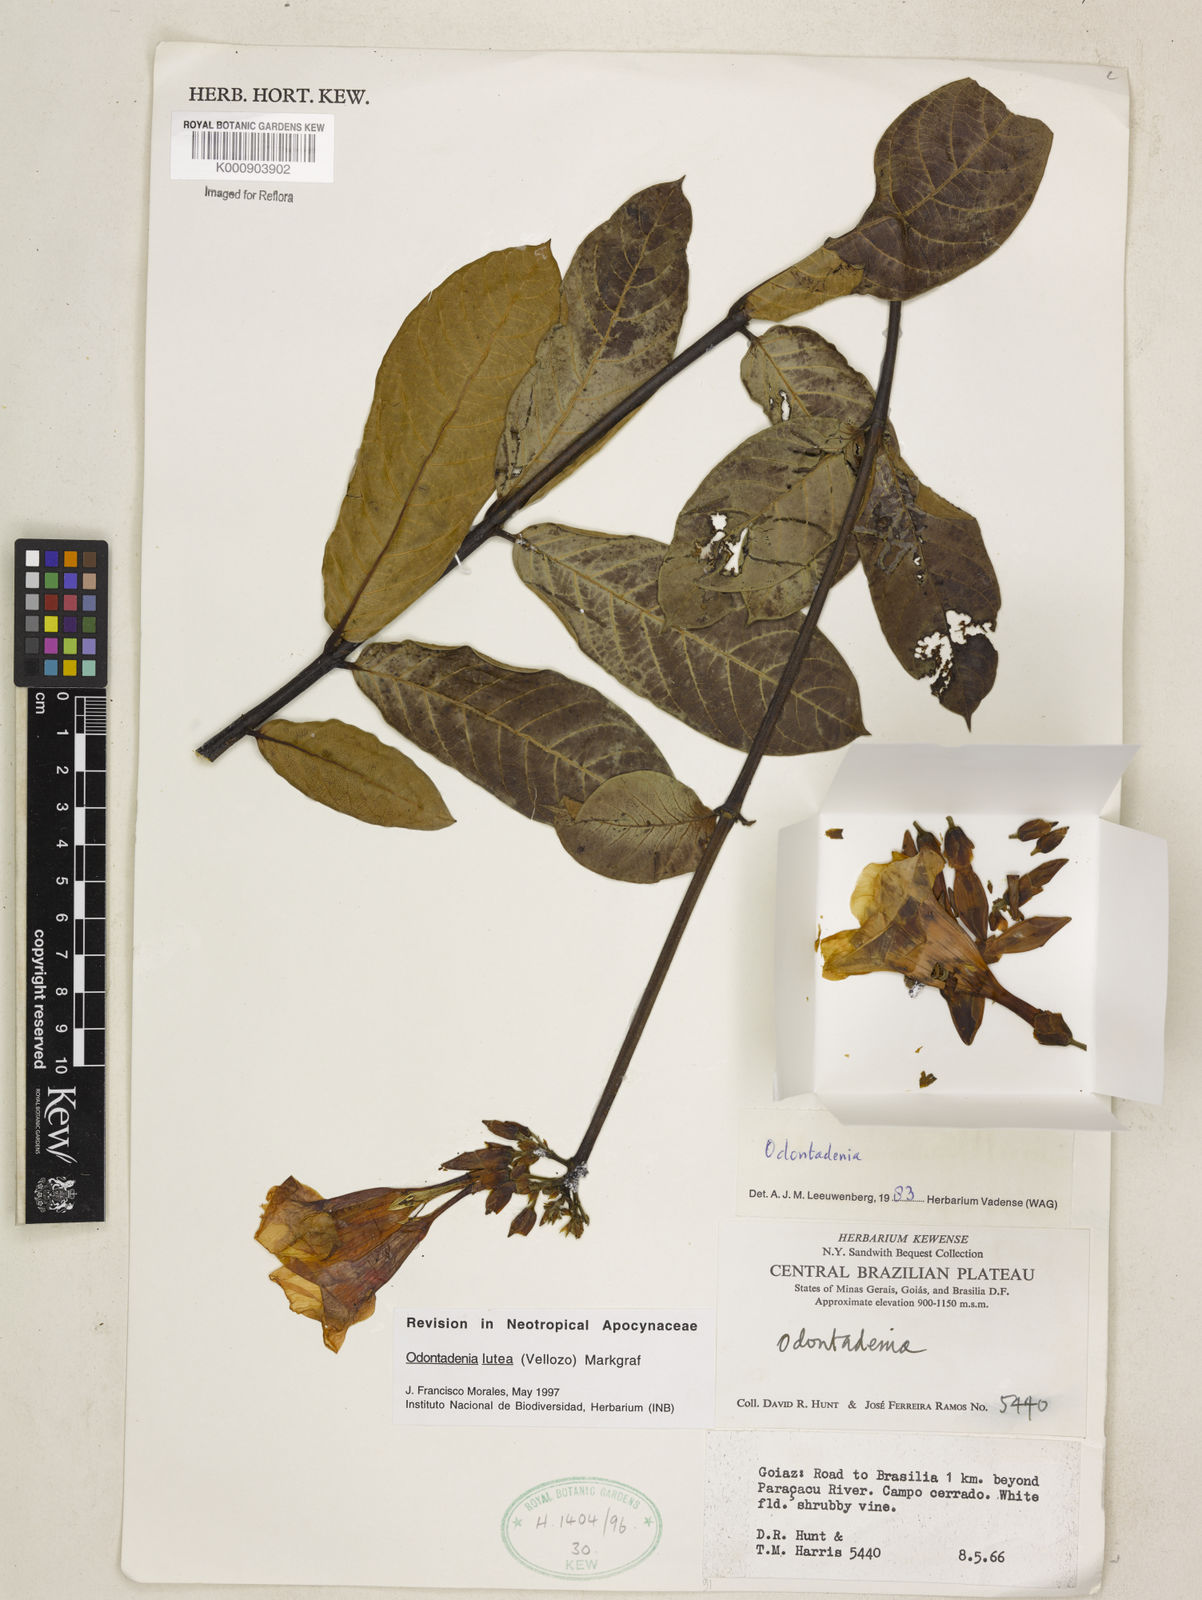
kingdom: Plantae
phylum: Tracheophyta
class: Magnoliopsida
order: Gentianales
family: Apocynaceae
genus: Odontadenia
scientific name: Odontadenia lutea
